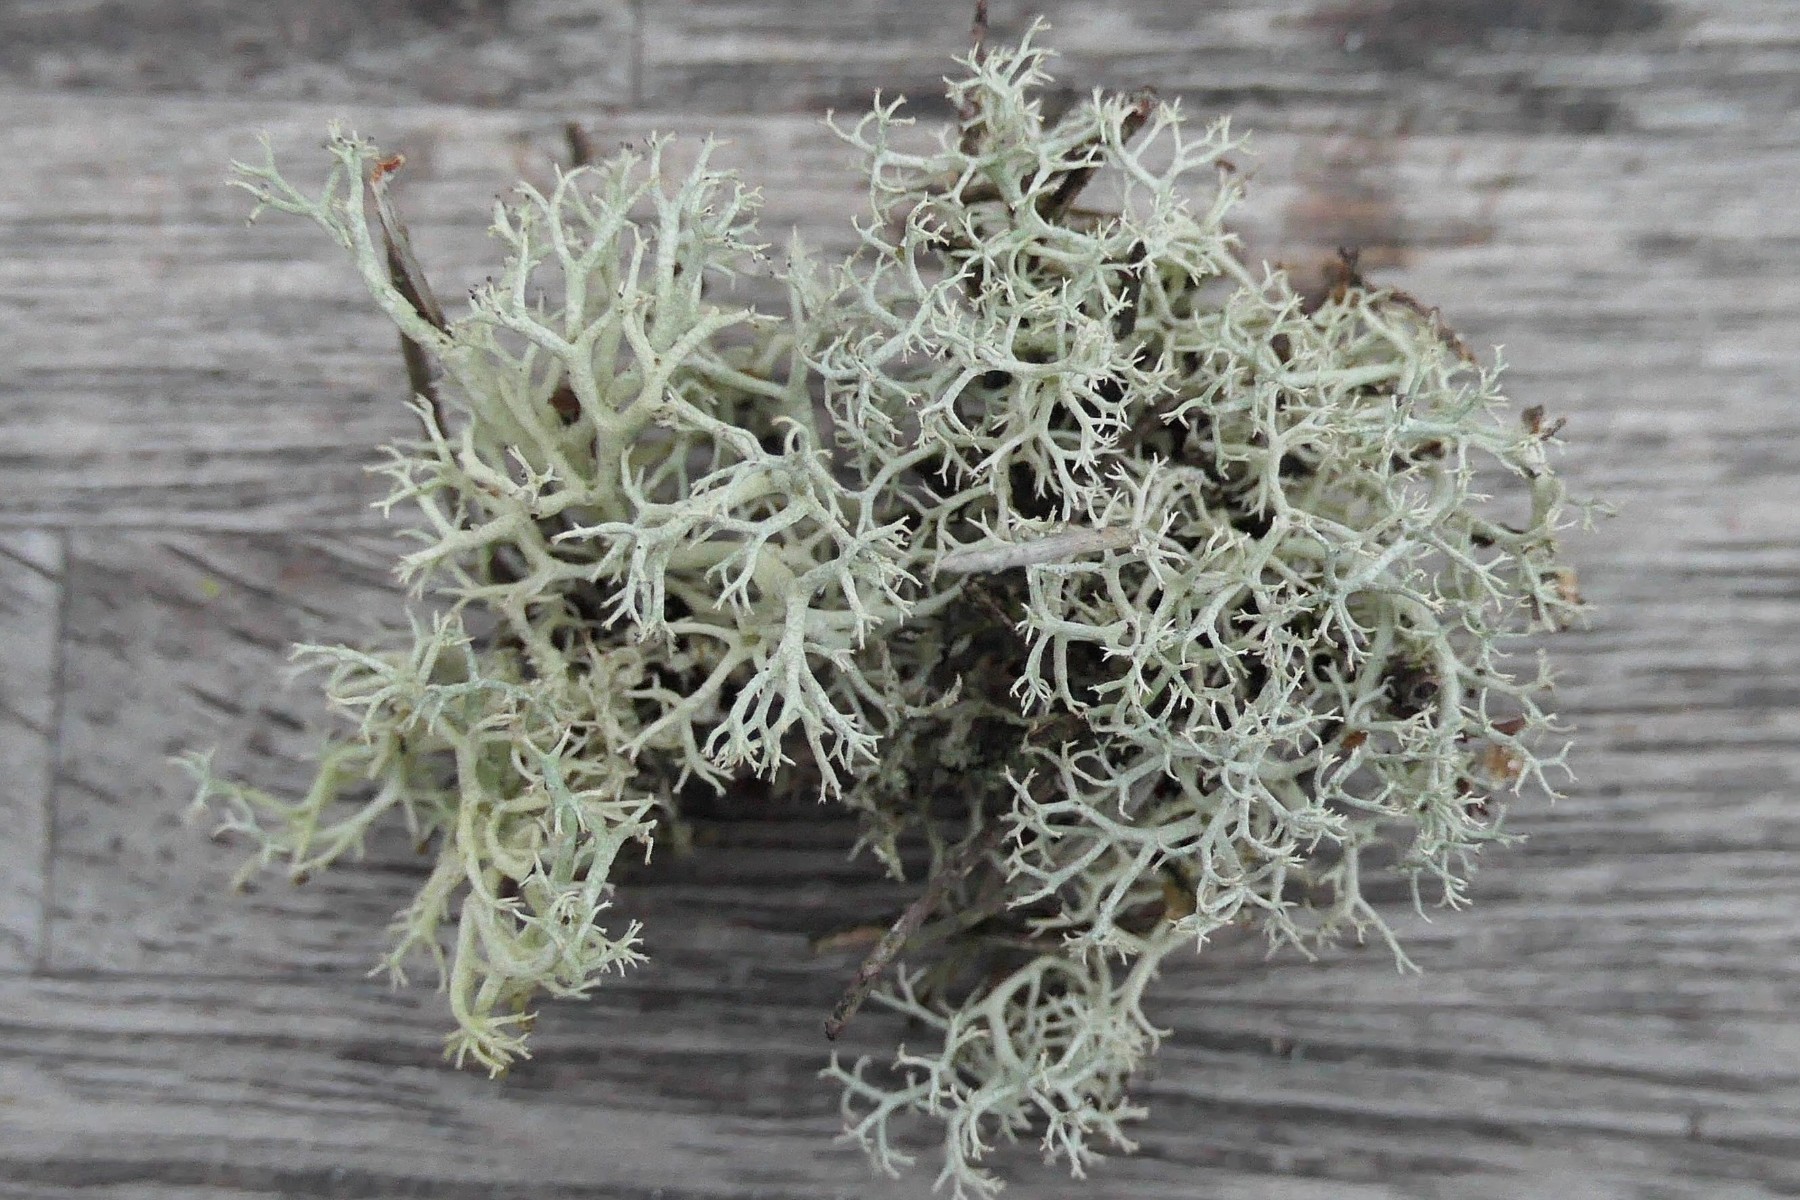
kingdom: Fungi
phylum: Ascomycota
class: Lecanoromycetes
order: Lecanorales
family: Cladoniaceae
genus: Cladonia
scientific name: Cladonia portentosa
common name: hede-rensdyrlav
